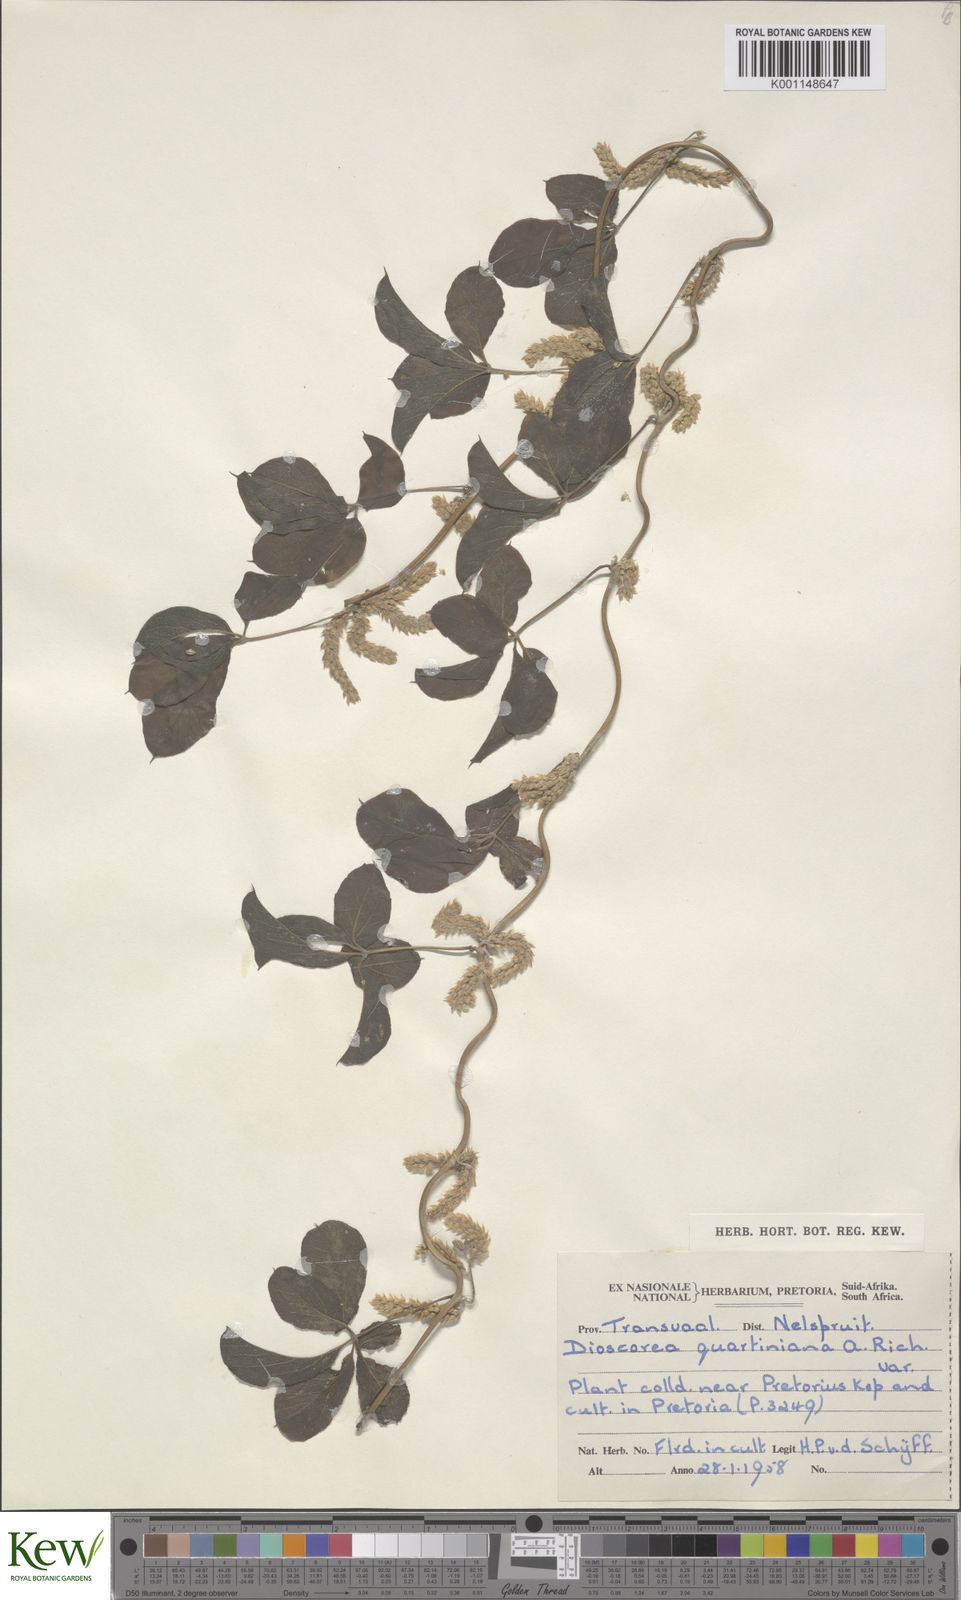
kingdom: Plantae
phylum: Tracheophyta
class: Liliopsida
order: Dioscoreales
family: Dioscoreaceae
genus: Dioscorea
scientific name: Dioscorea quartiniana
